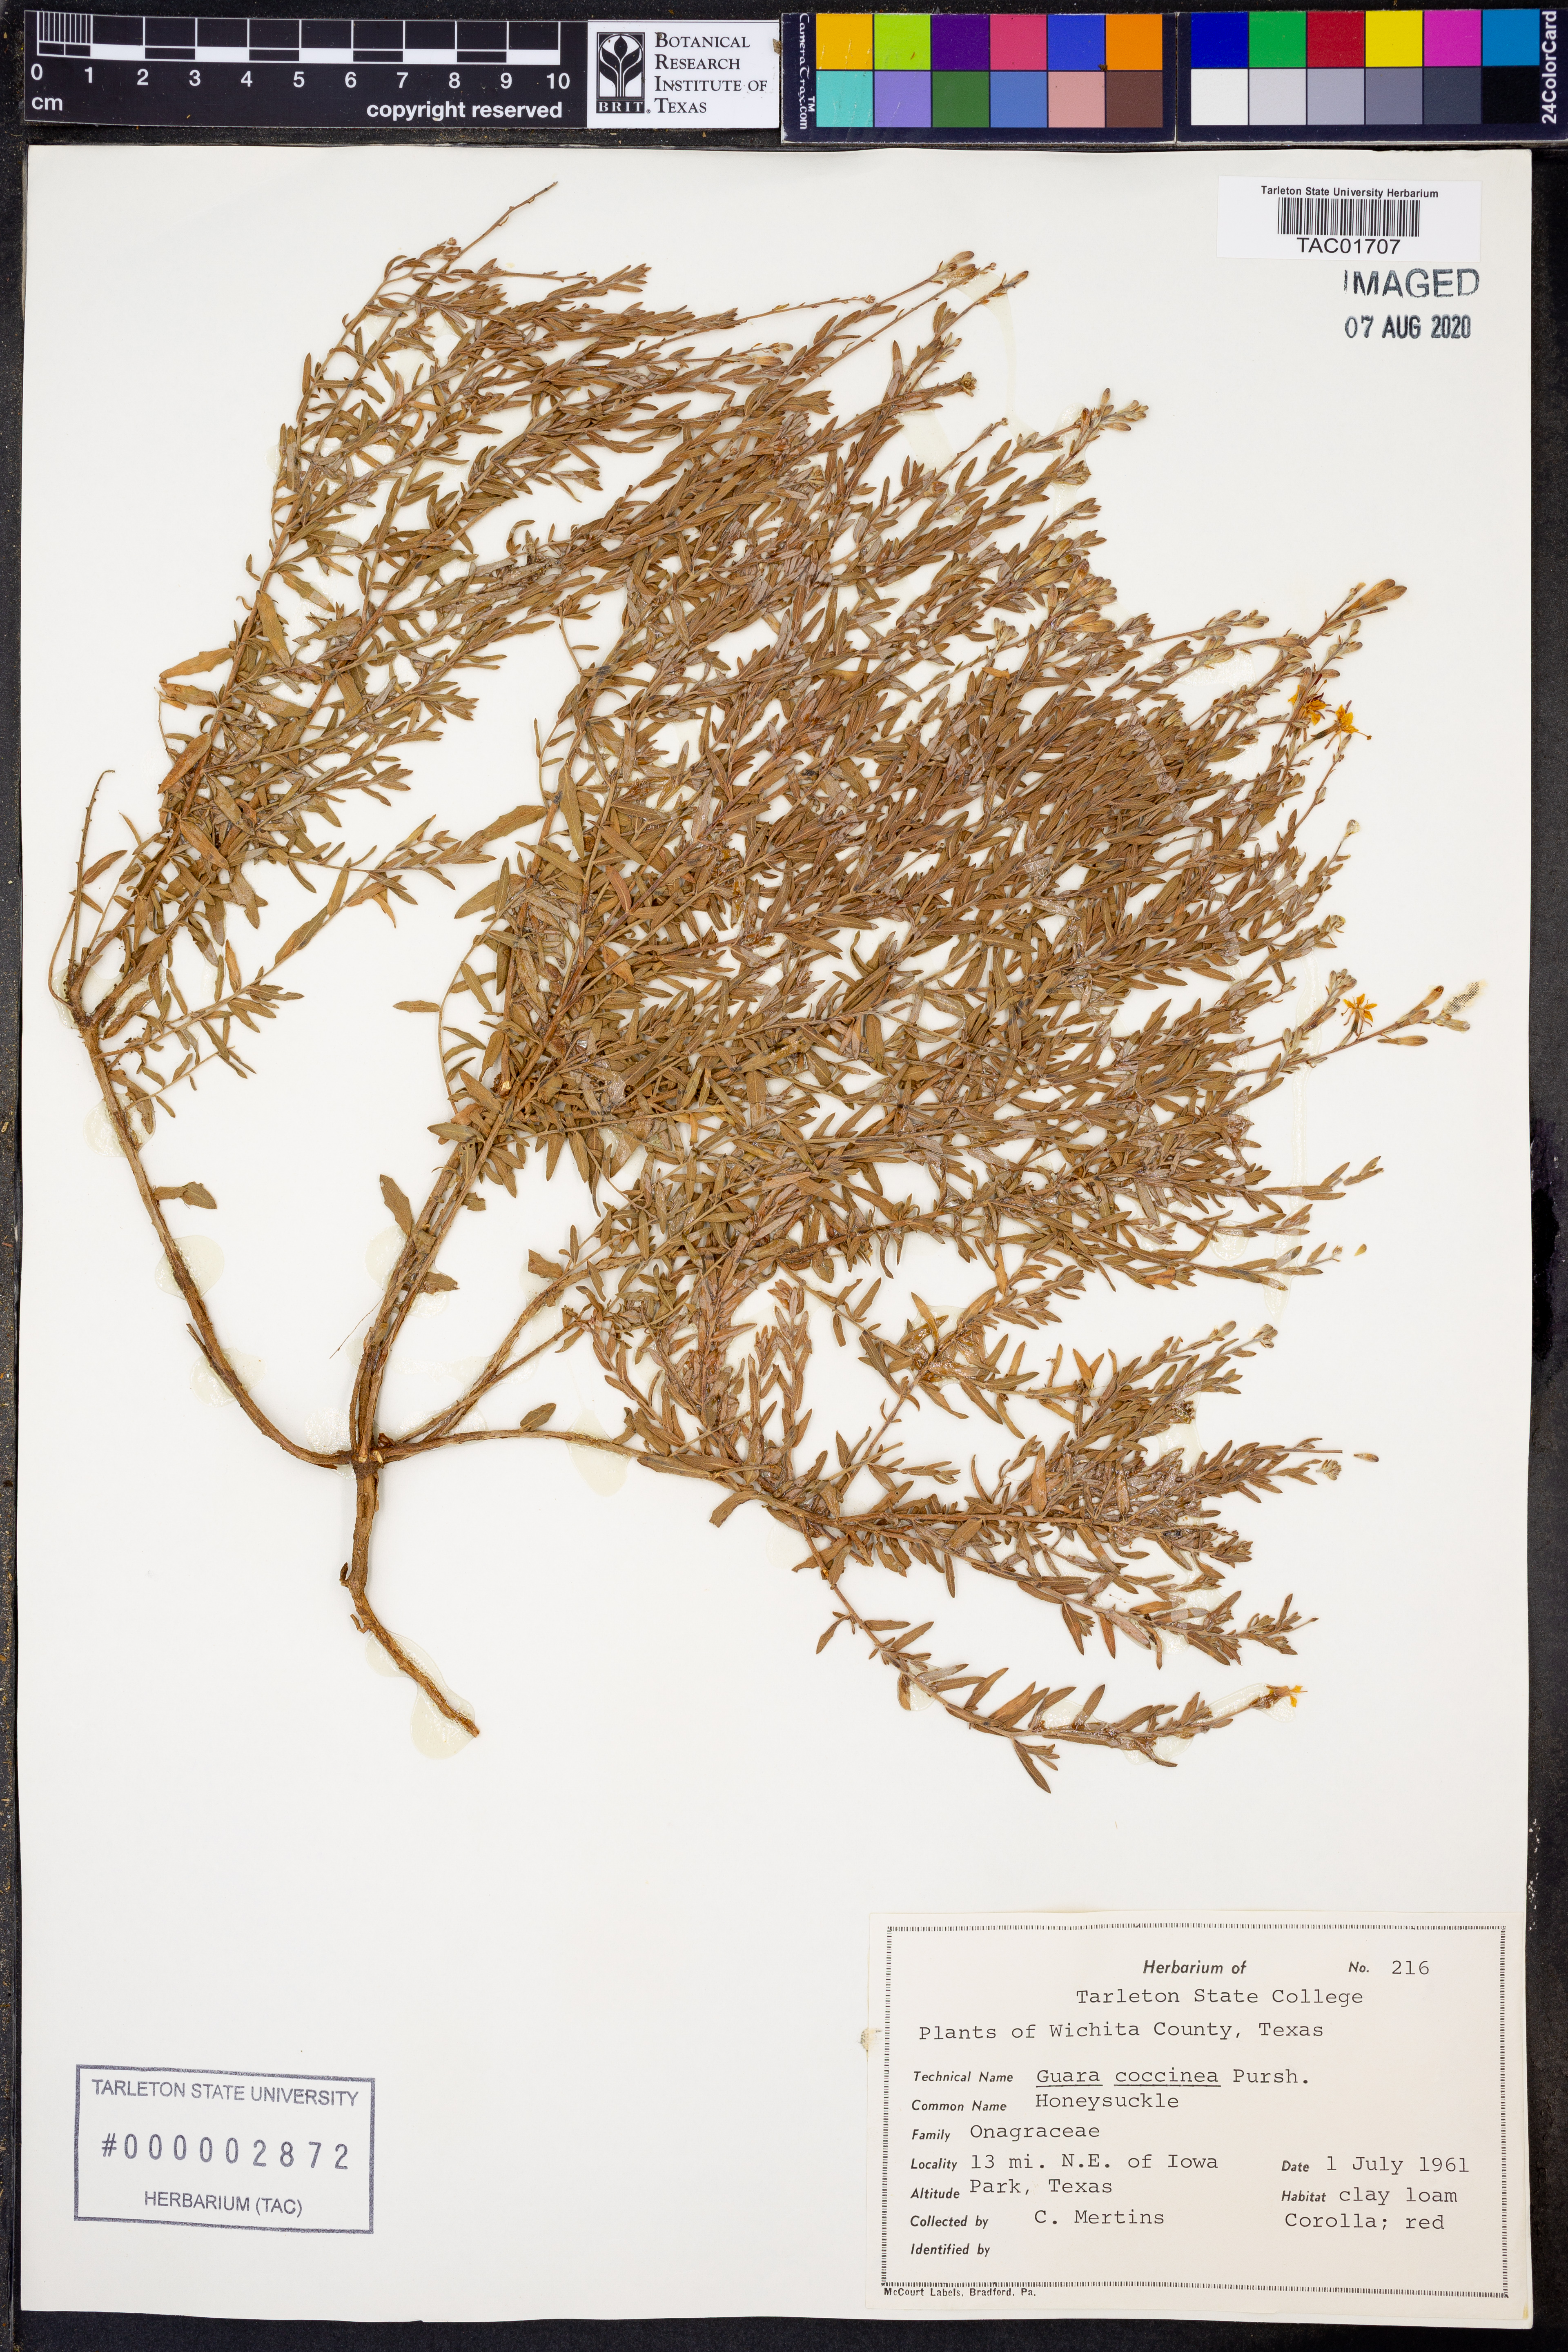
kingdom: Plantae
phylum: Tracheophyta
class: Magnoliopsida
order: Myrtales
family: Onagraceae
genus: Oenothera
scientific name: Oenothera suffrutescens
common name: Scarlet beeblossom
